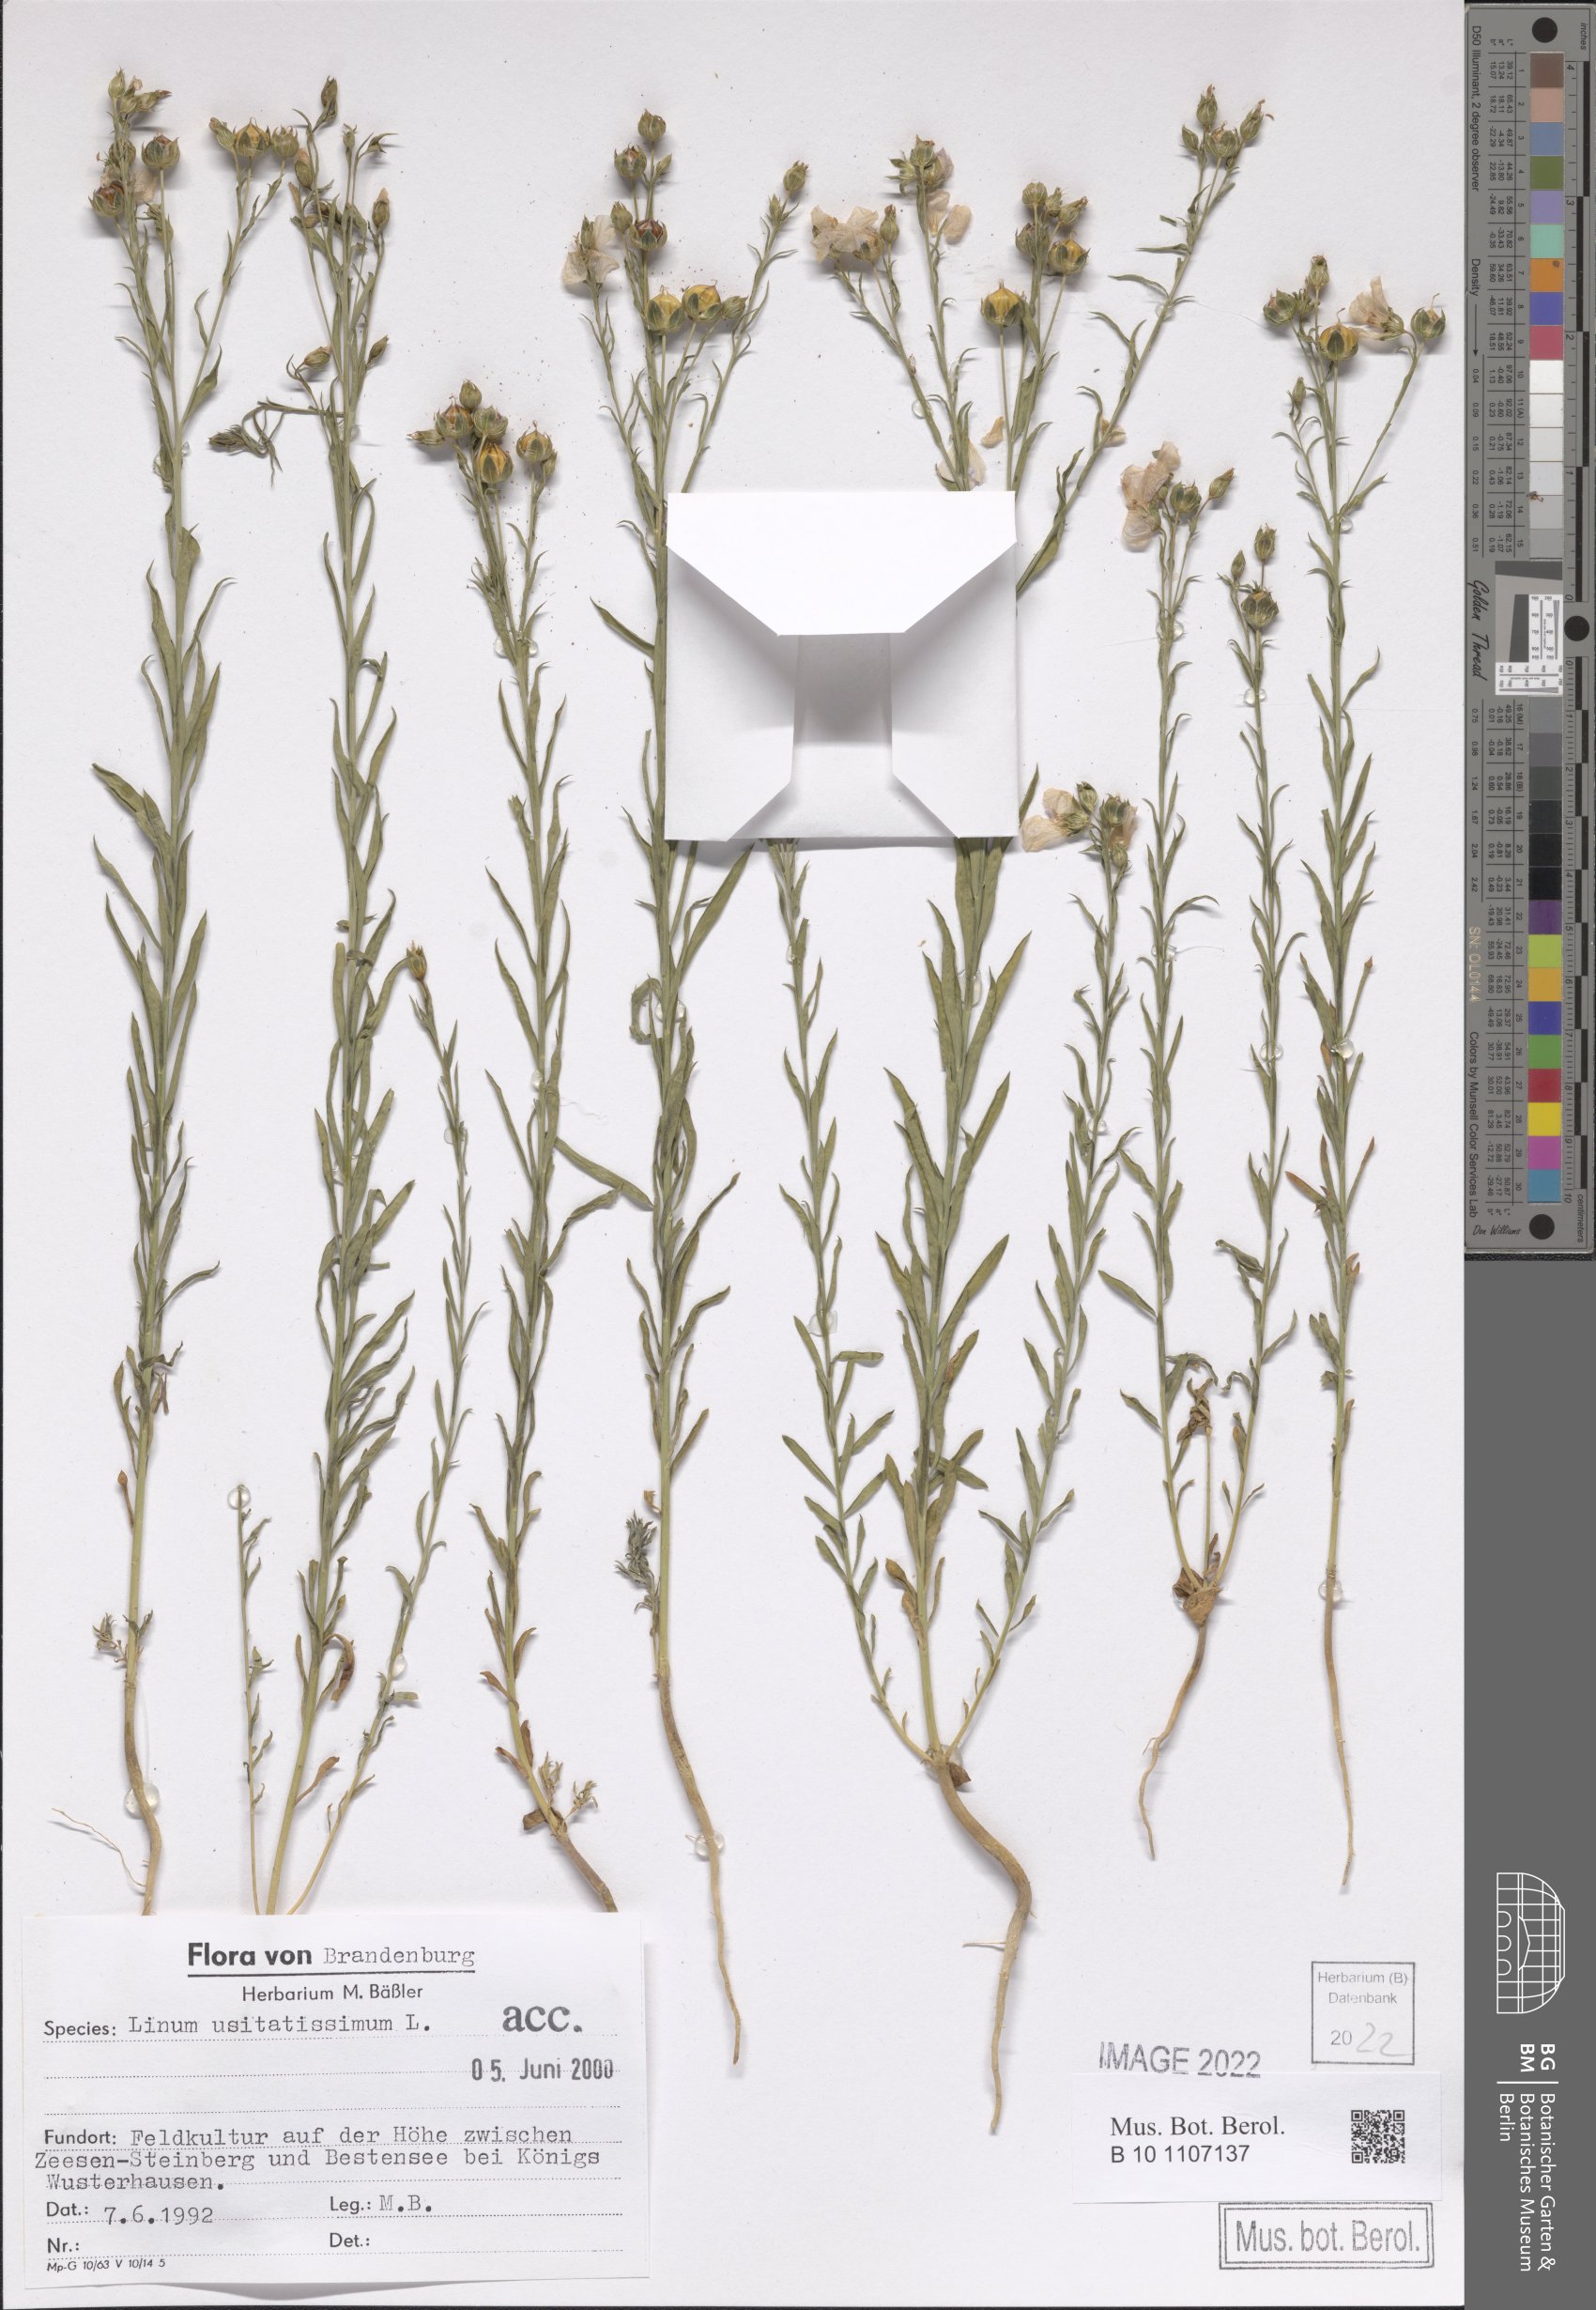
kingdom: Plantae
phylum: Tracheophyta
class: Magnoliopsida
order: Malpighiales
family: Linaceae
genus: Linum
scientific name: Linum usitatissimum
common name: Flax
